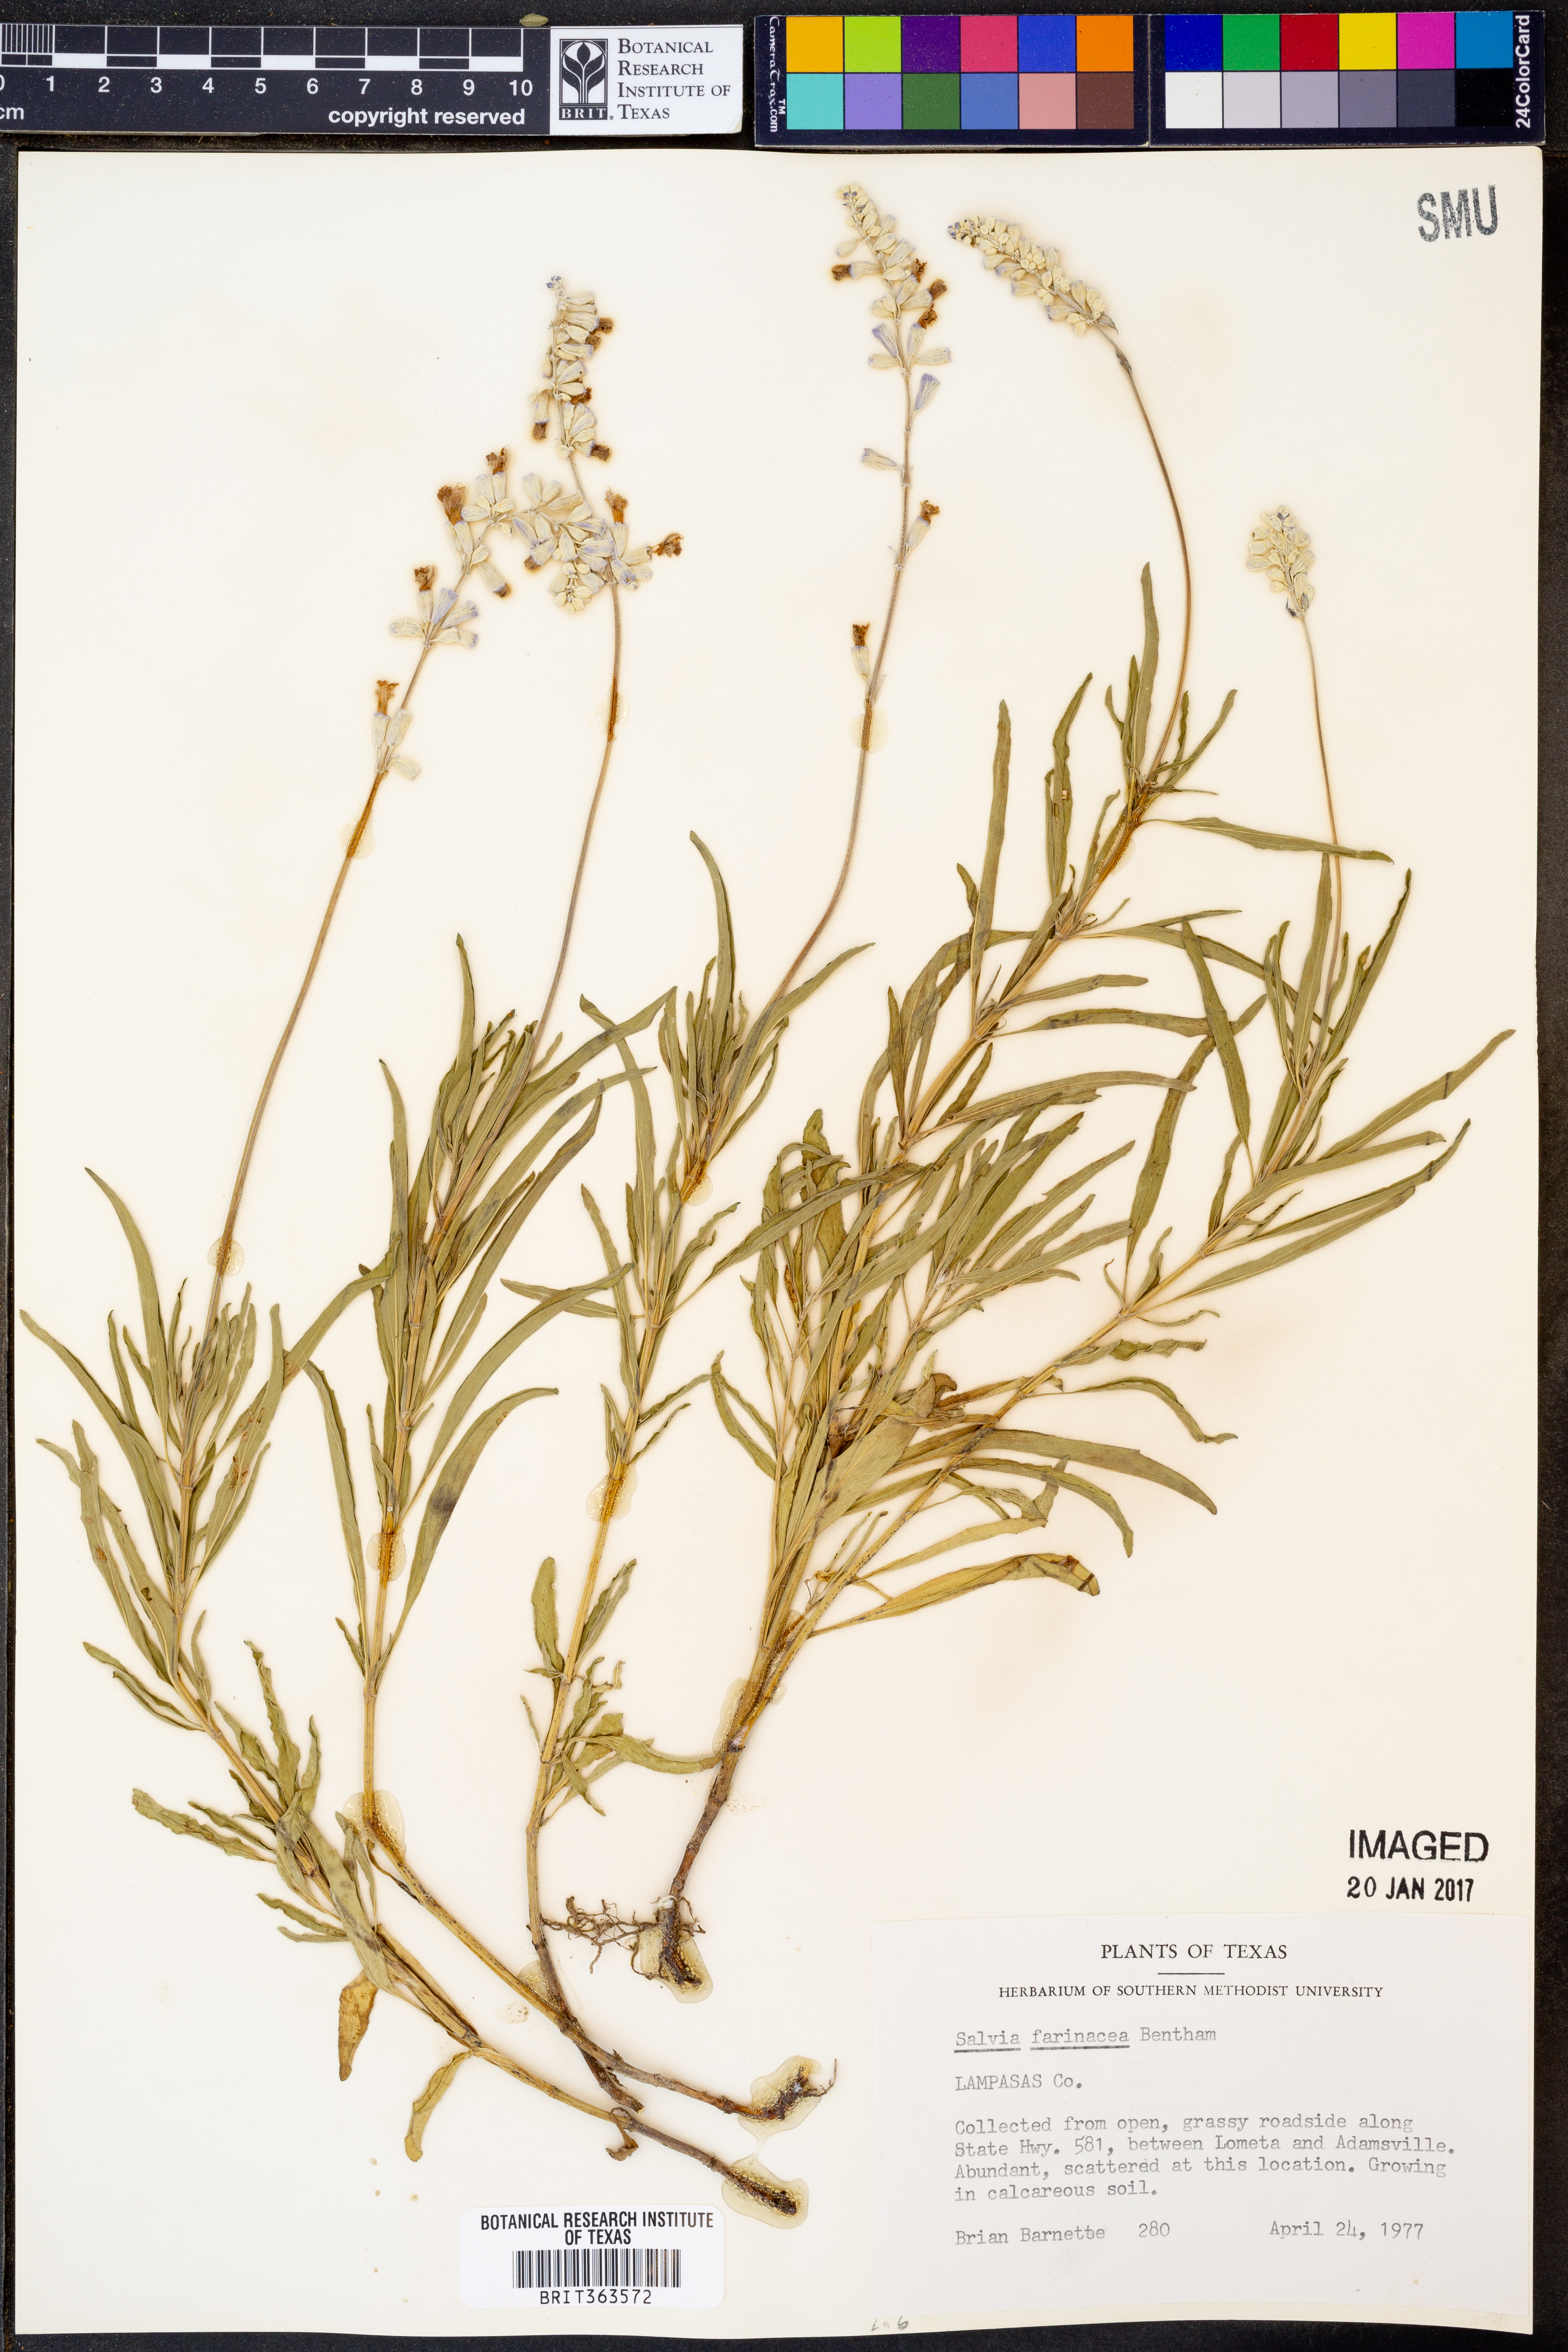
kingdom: Plantae
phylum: Tracheophyta
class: Magnoliopsida
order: Lamiales
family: Lamiaceae
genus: Salvia
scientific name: Salvia farinacea
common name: Mealy sage
